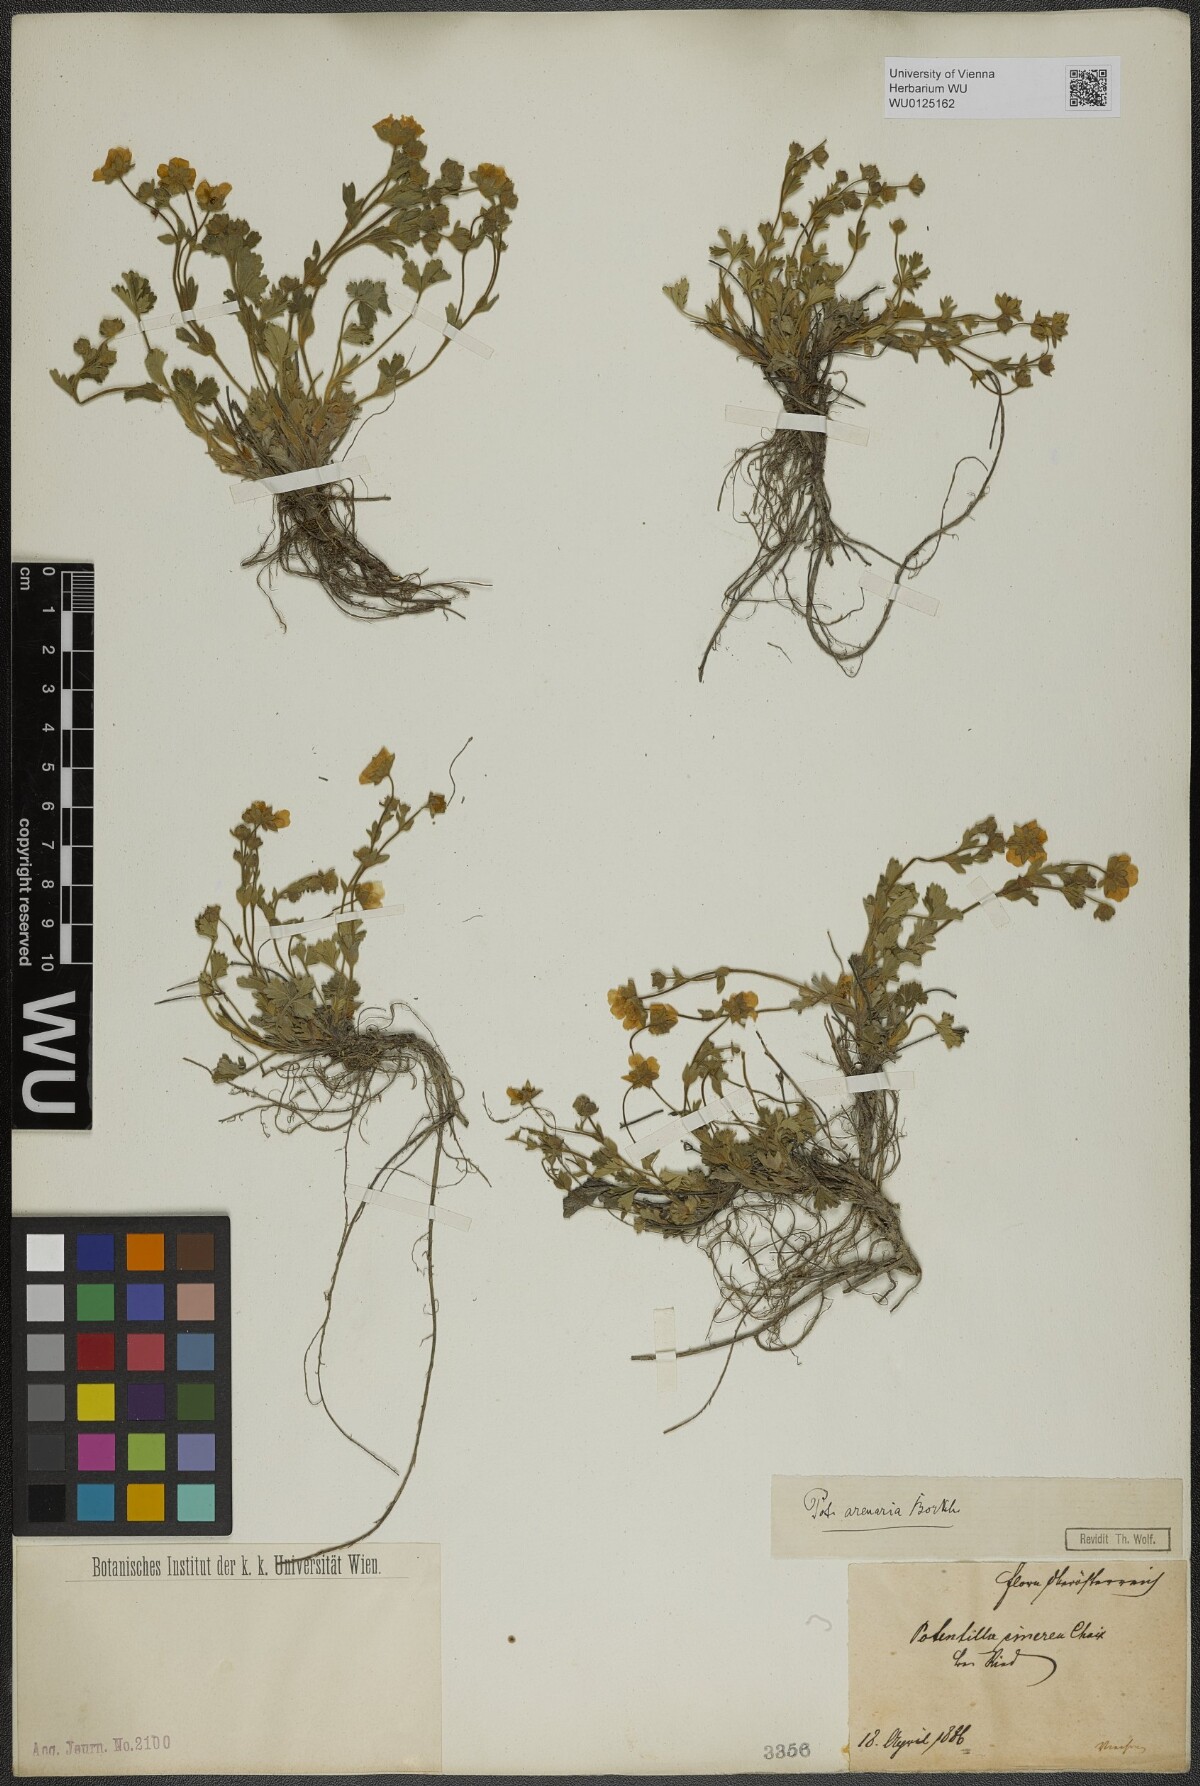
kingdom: Plantae
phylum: Tracheophyta
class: Magnoliopsida
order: Rosales
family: Rosaceae
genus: Potentilla
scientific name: Potentilla cinerea
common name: Ashy cinquefoil
